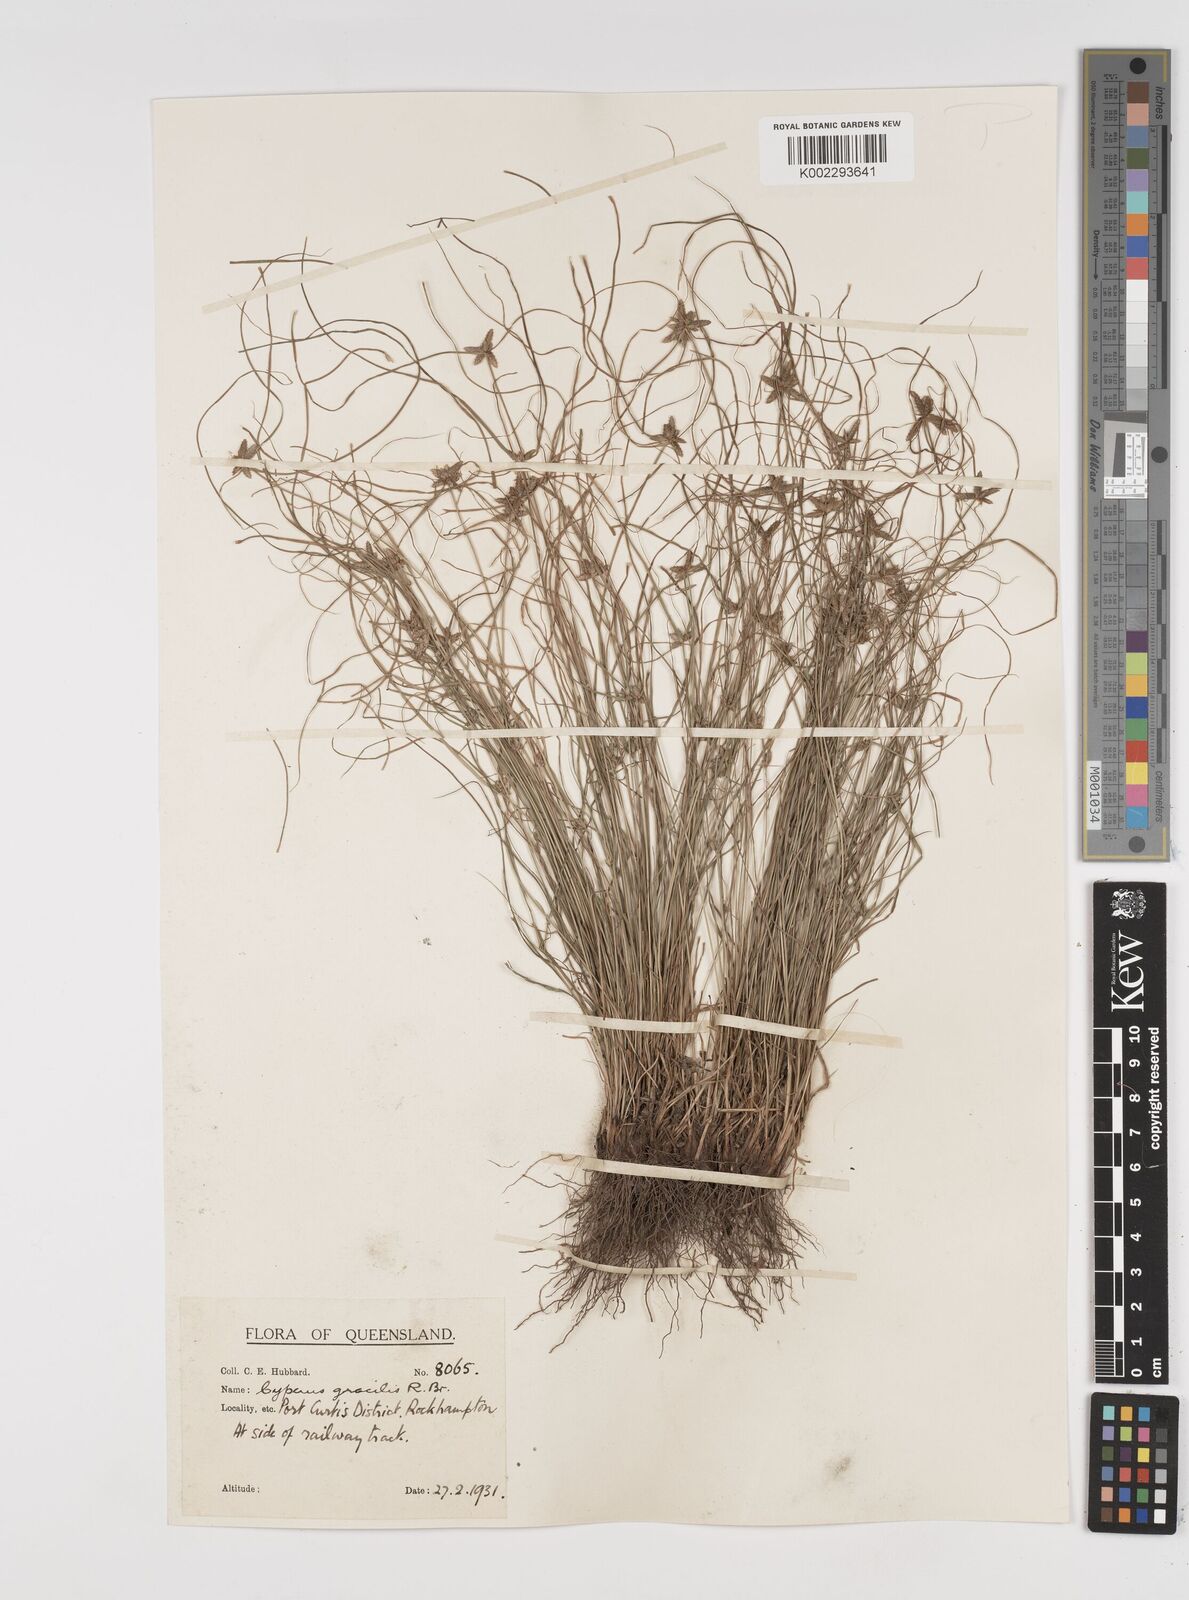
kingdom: Plantae
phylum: Tracheophyta
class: Liliopsida
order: Poales
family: Cyperaceae
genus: Cyperus
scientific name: Cyperus gracilis
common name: Slimjim flatsedge
